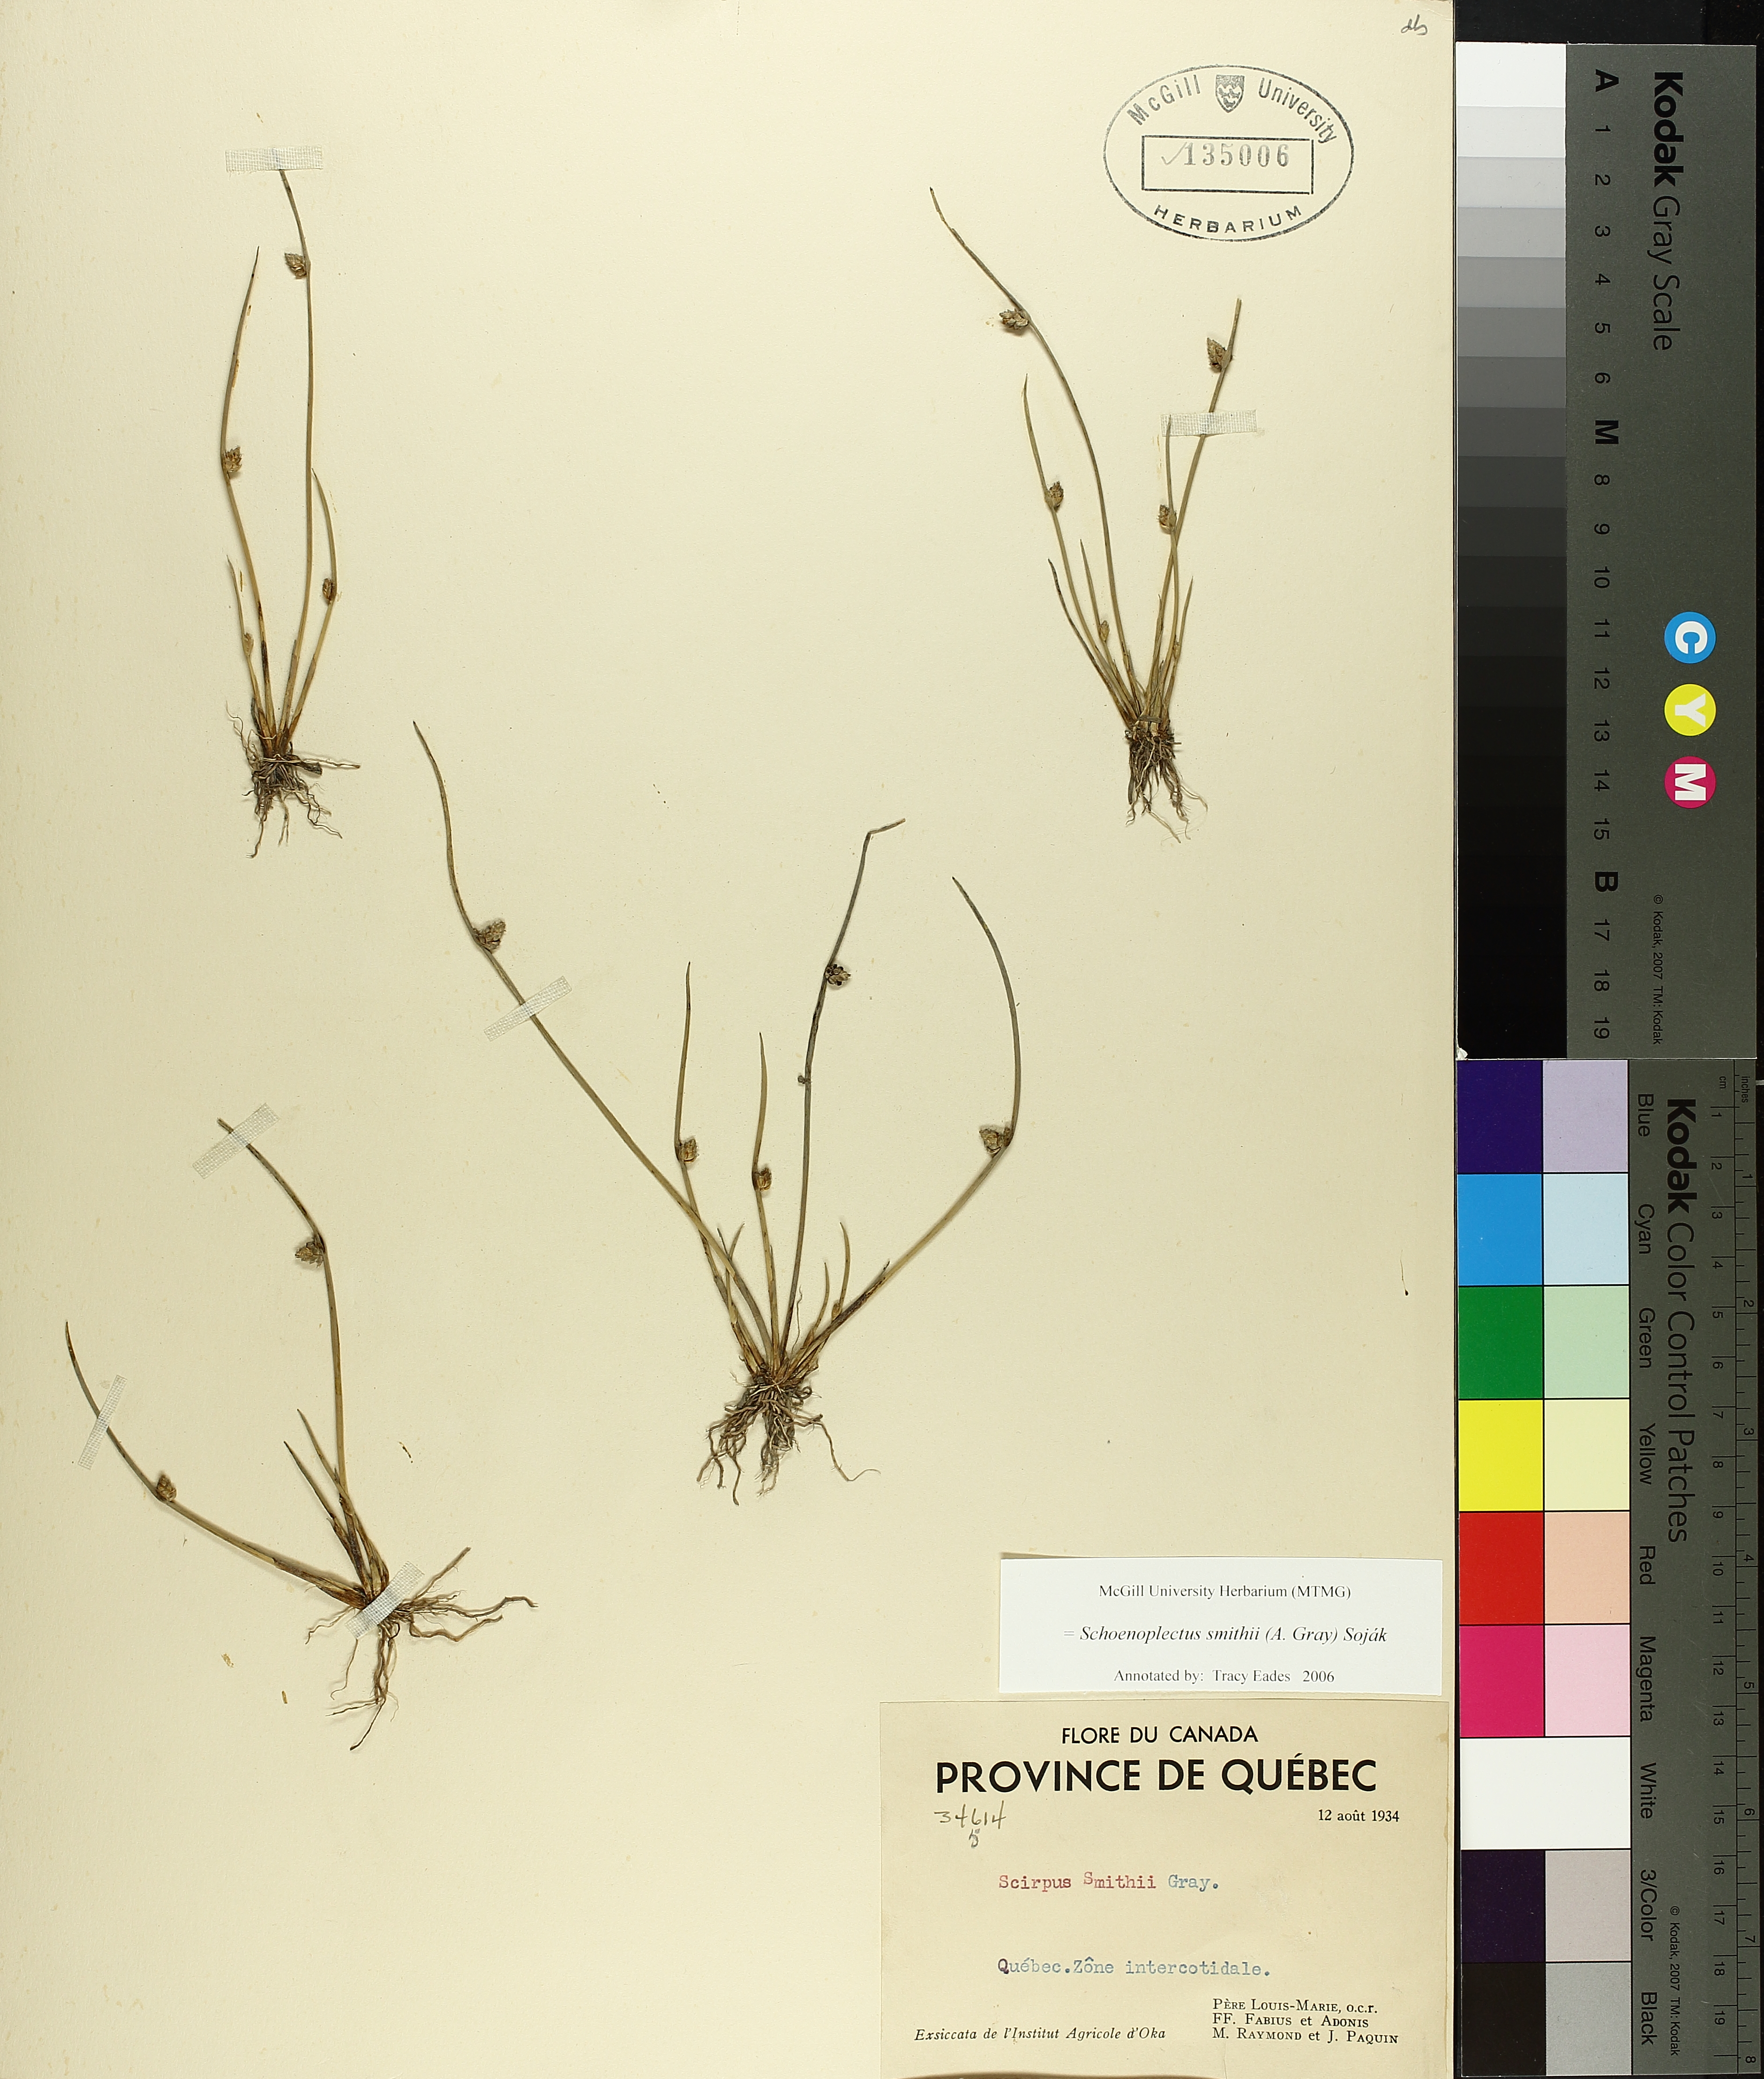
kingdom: Plantae
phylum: Tracheophyta
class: Liliopsida
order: Poales
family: Cyperaceae
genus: Schoenoplectiella
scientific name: Schoenoplectiella smithii
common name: Smith's bulrush
